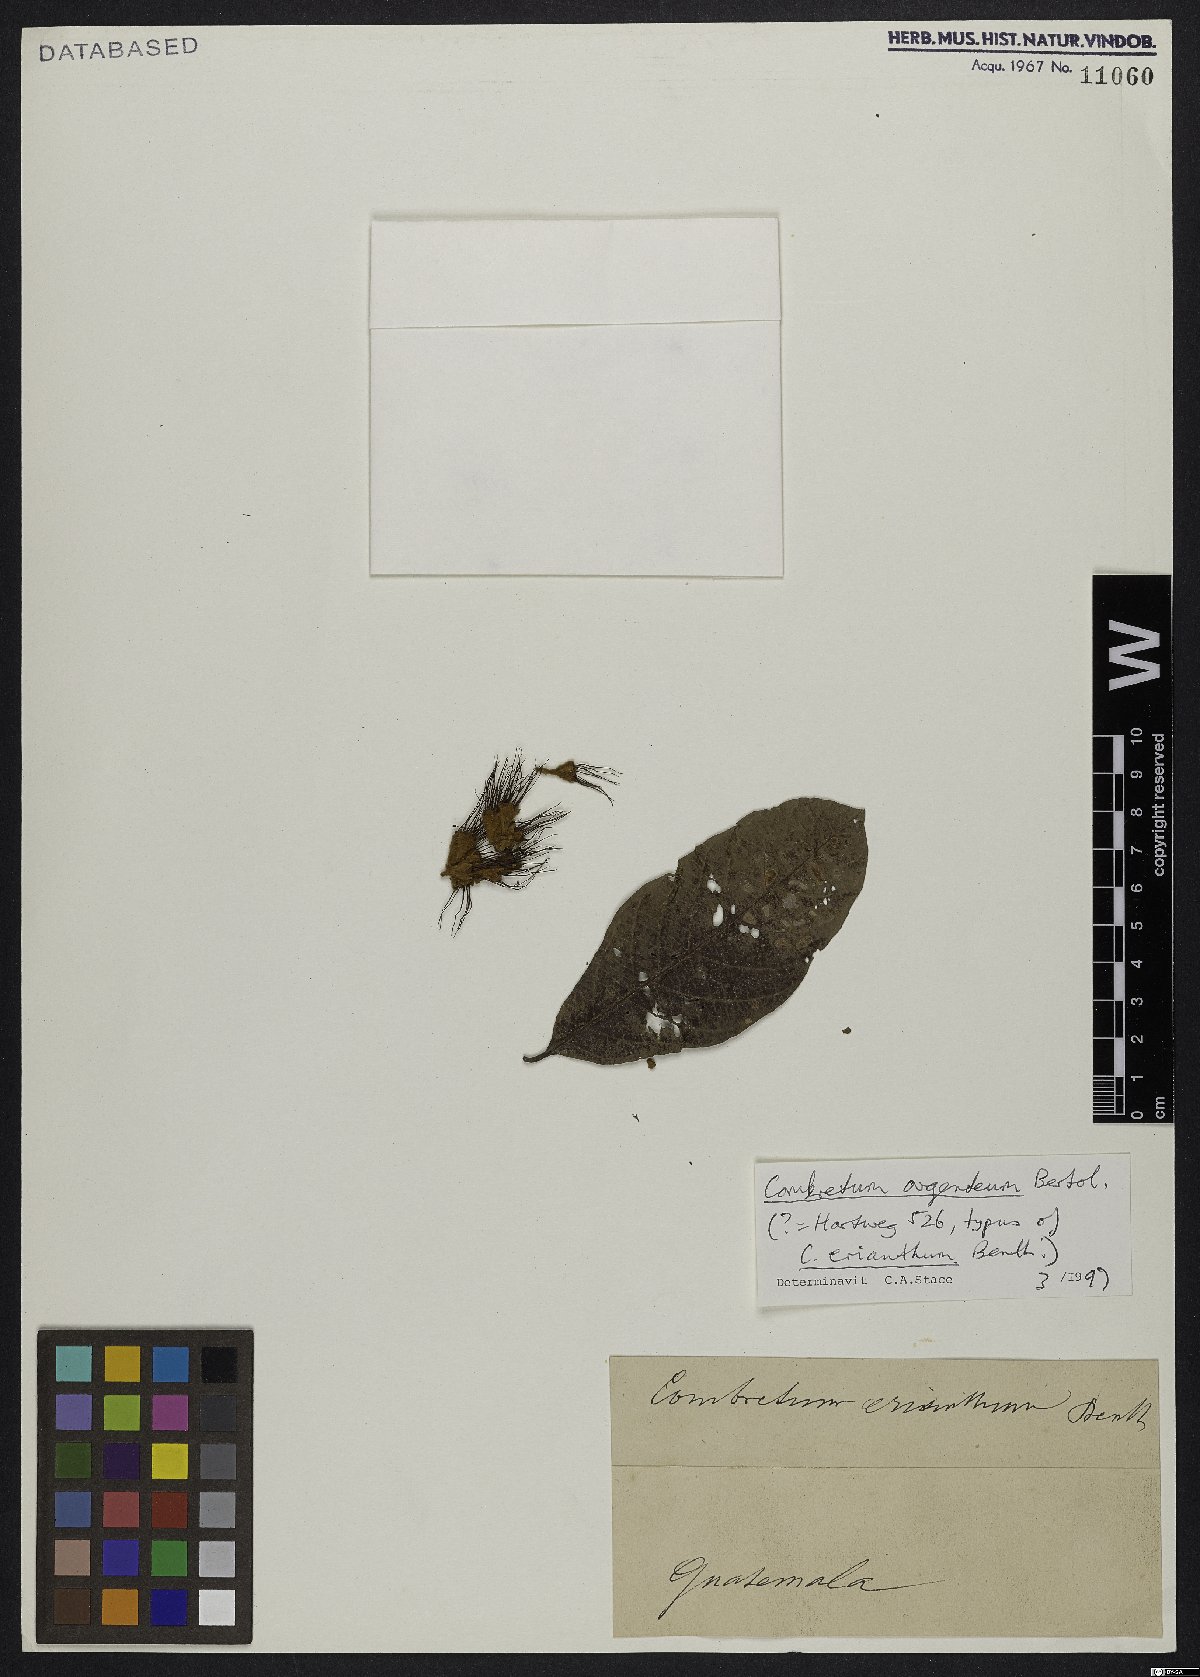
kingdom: Plantae
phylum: Tracheophyta
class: Magnoliopsida
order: Myrtales
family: Combretaceae
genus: Combretum
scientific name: Combretum argenteum
